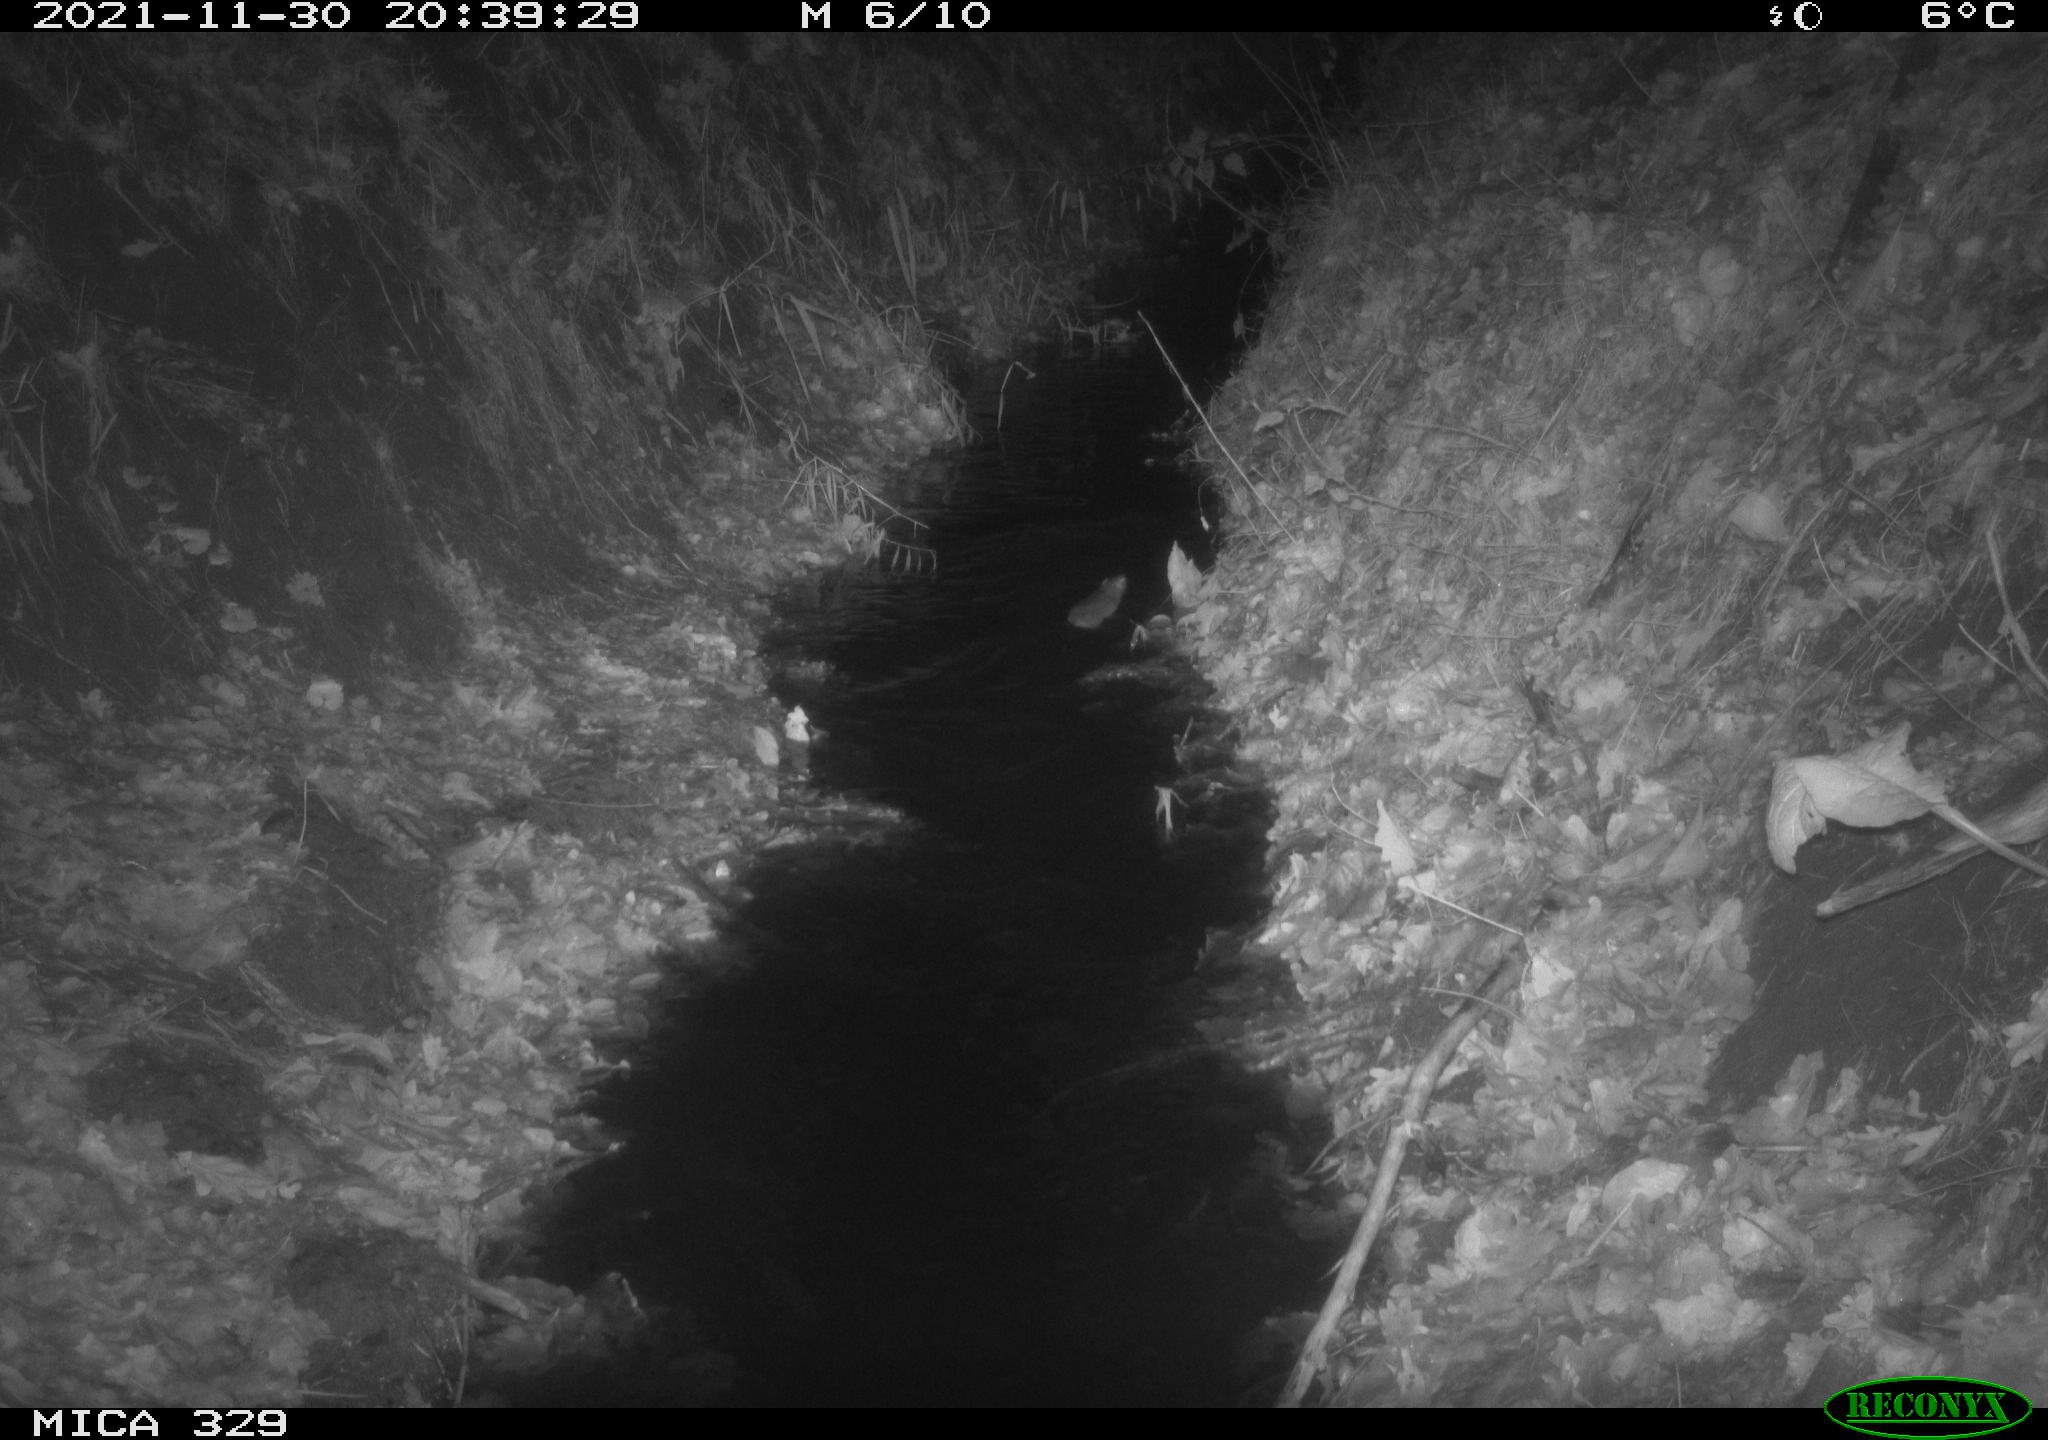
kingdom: Animalia
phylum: Chordata
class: Mammalia
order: Rodentia
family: Muridae
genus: Rattus
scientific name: Rattus norvegicus
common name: Brown rat
